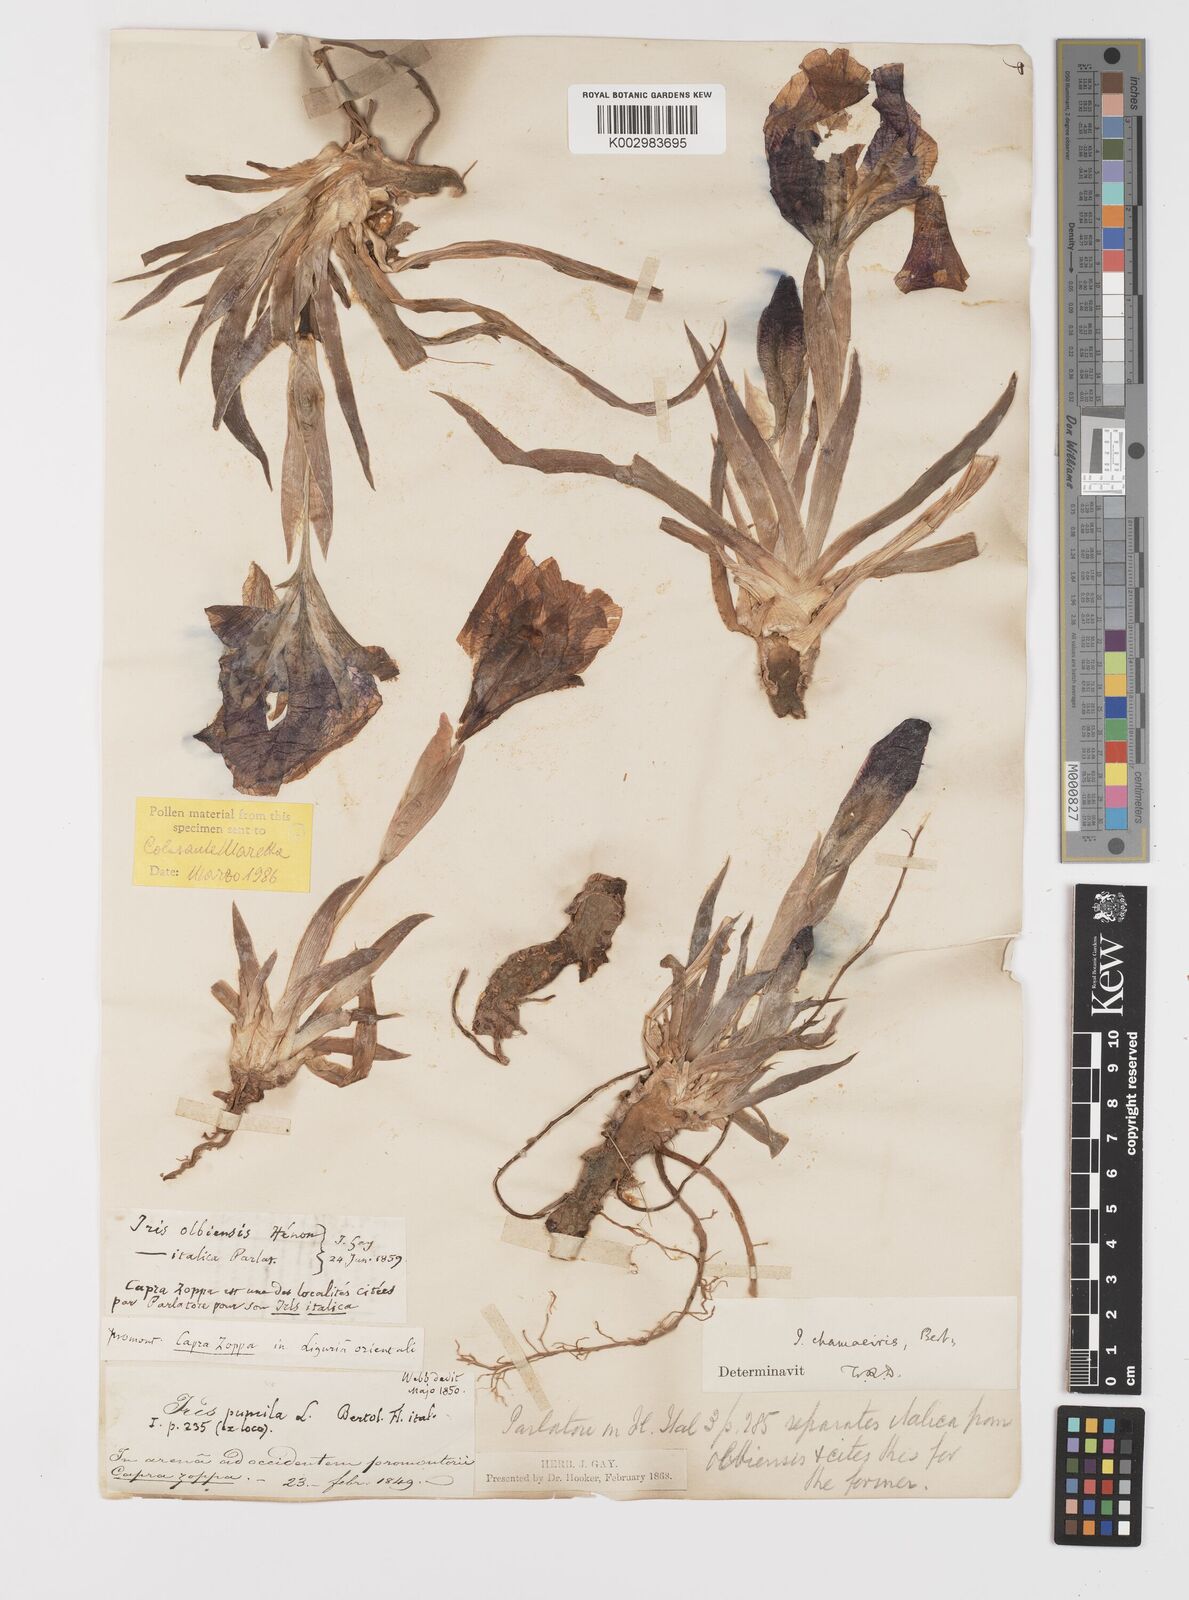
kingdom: Plantae
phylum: Tracheophyta
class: Liliopsida
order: Asparagales
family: Iridaceae
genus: Iris
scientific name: Iris lutescens
